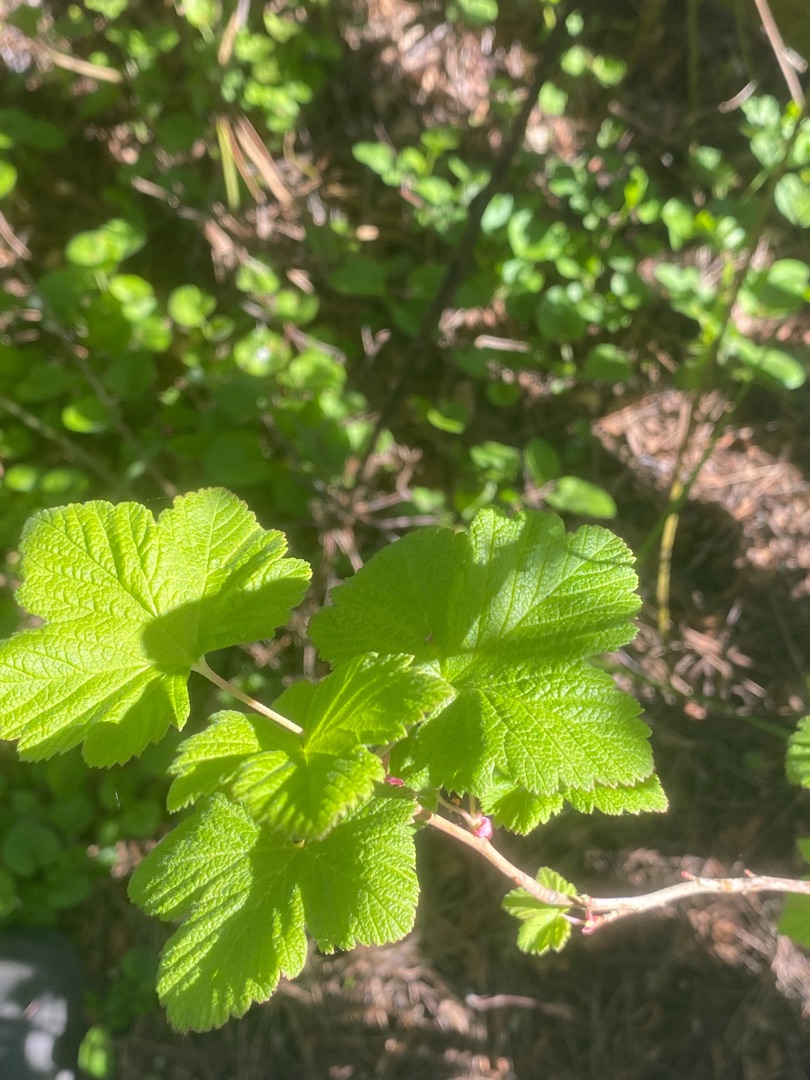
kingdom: Plantae
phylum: Tracheophyta
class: Magnoliopsida
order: Saxifragales
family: Grossulariaceae
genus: Ribes
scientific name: Ribes sanguineum
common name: Blod-ribs
